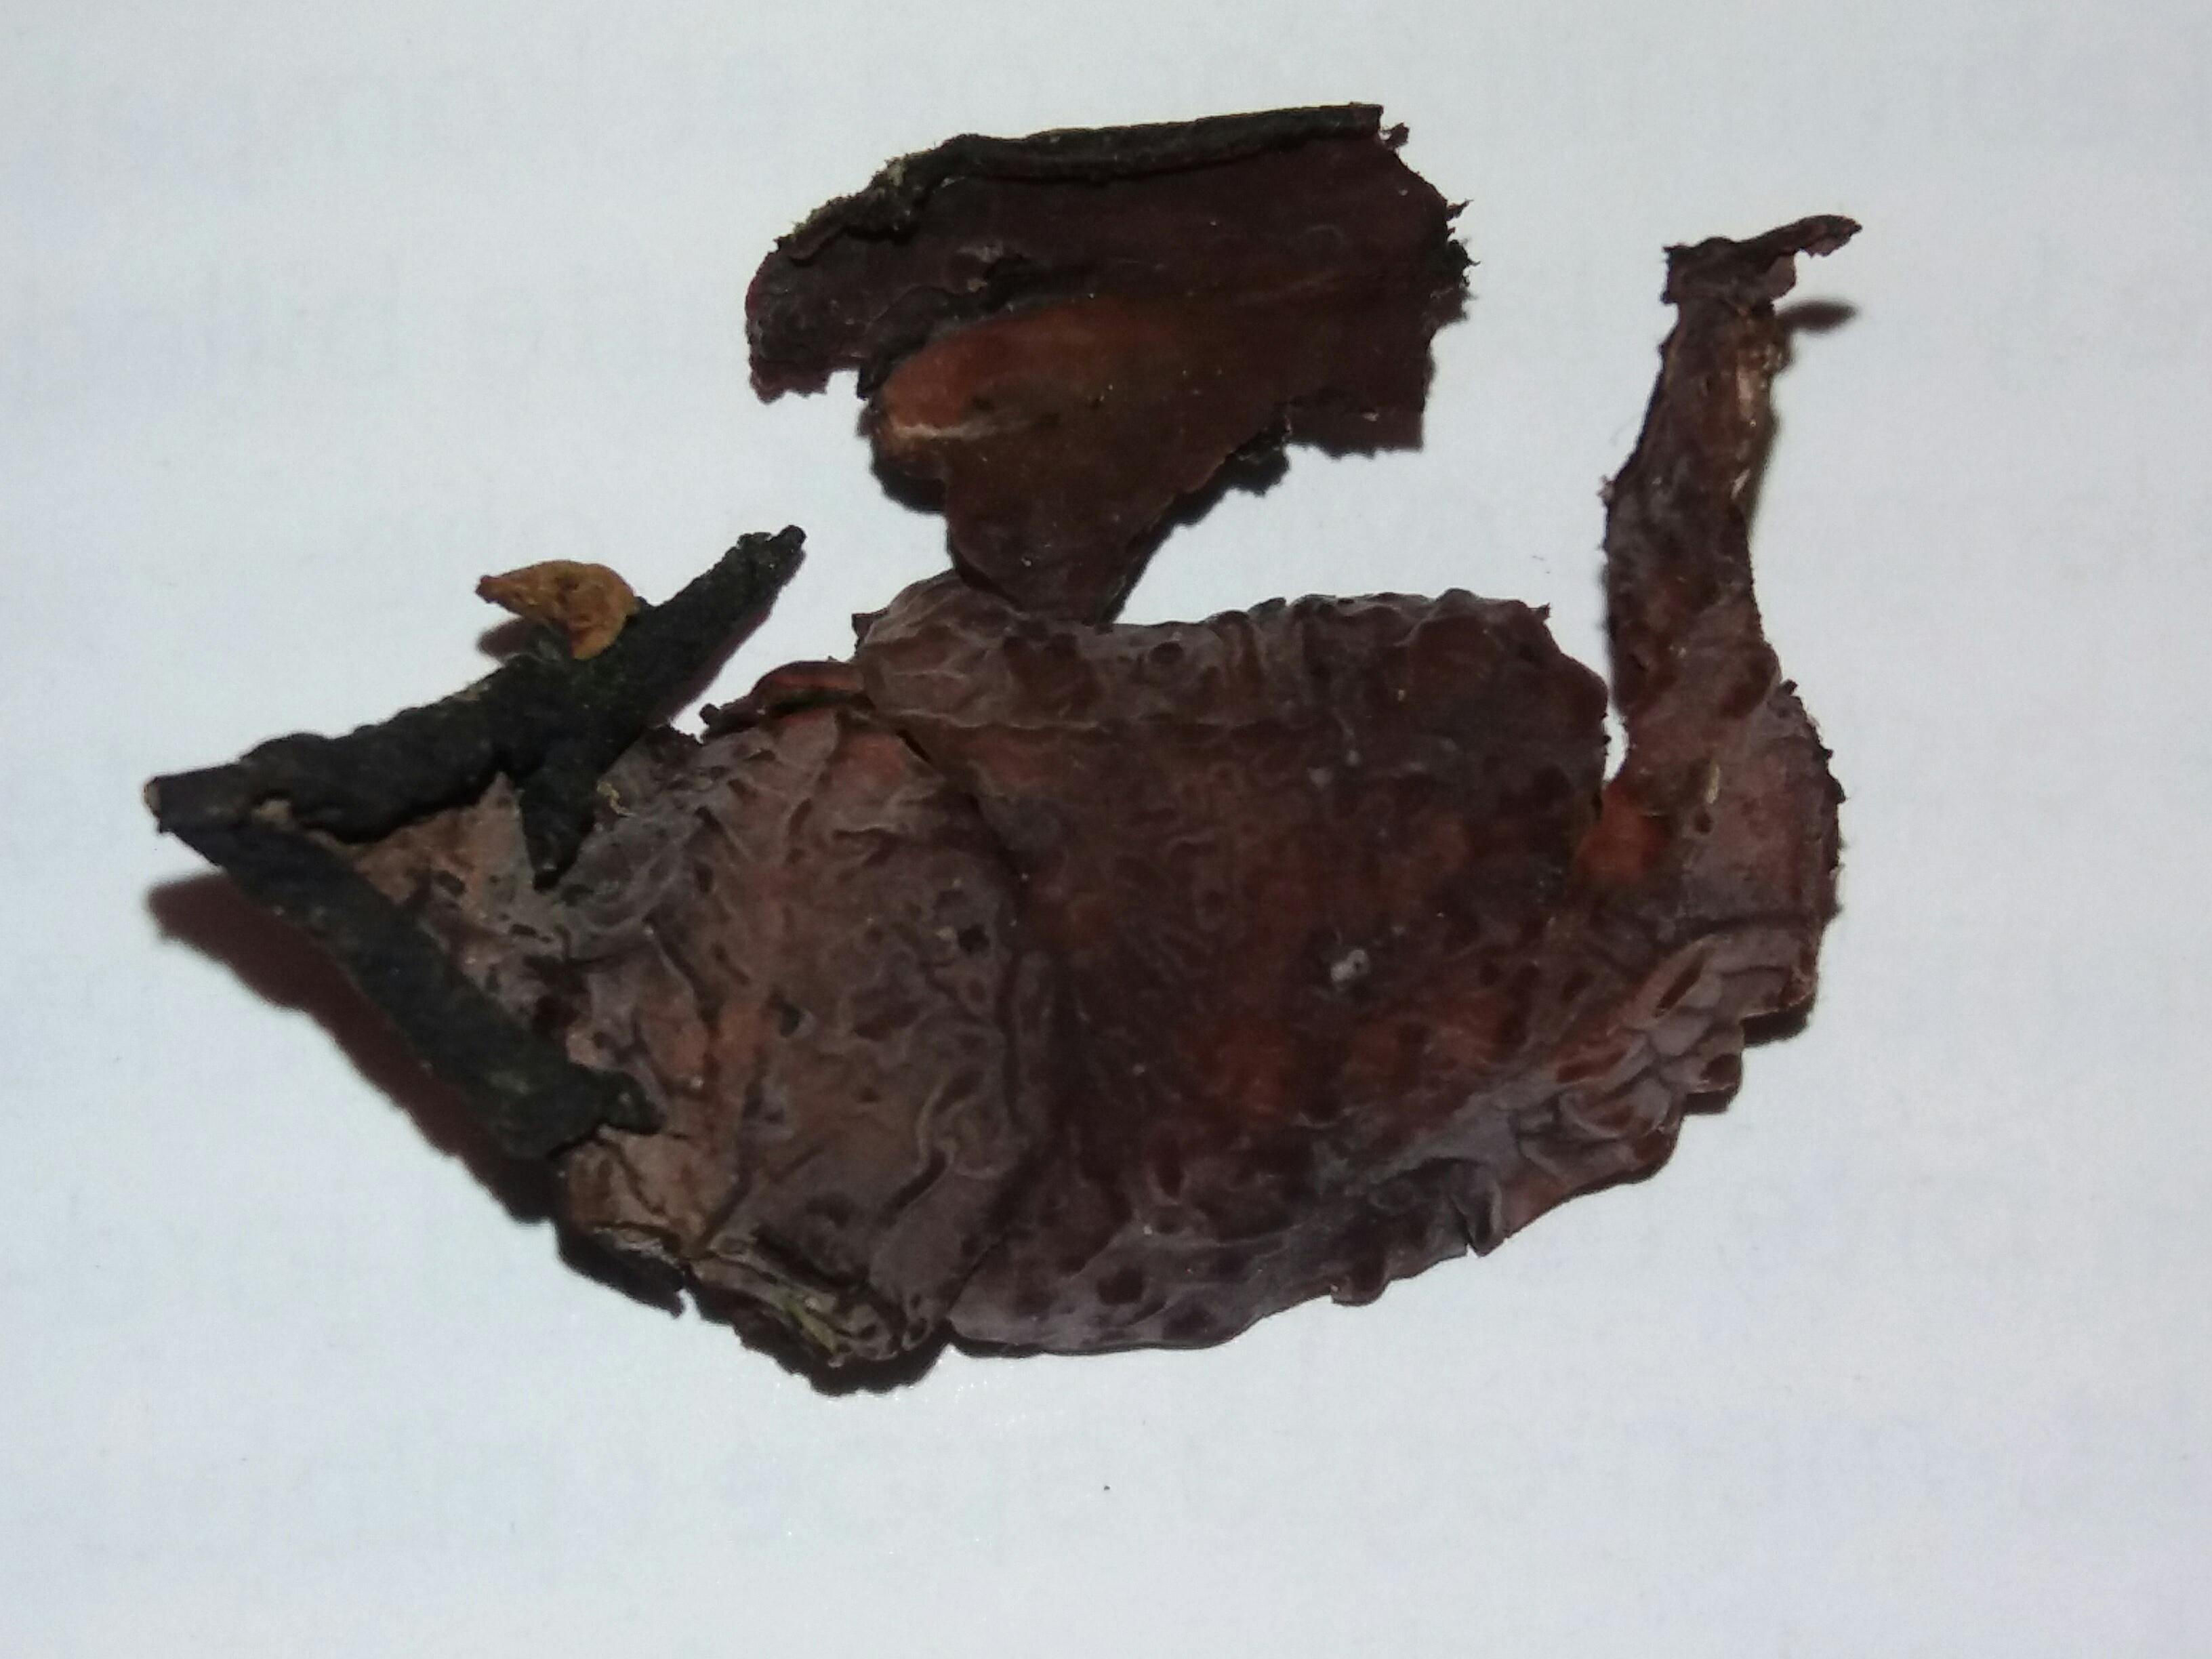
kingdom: Fungi
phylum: Basidiomycota
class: Agaricomycetes
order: Russulales
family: Peniophoraceae
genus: Peniophora
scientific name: Peniophora quercina
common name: ege-voksskind
